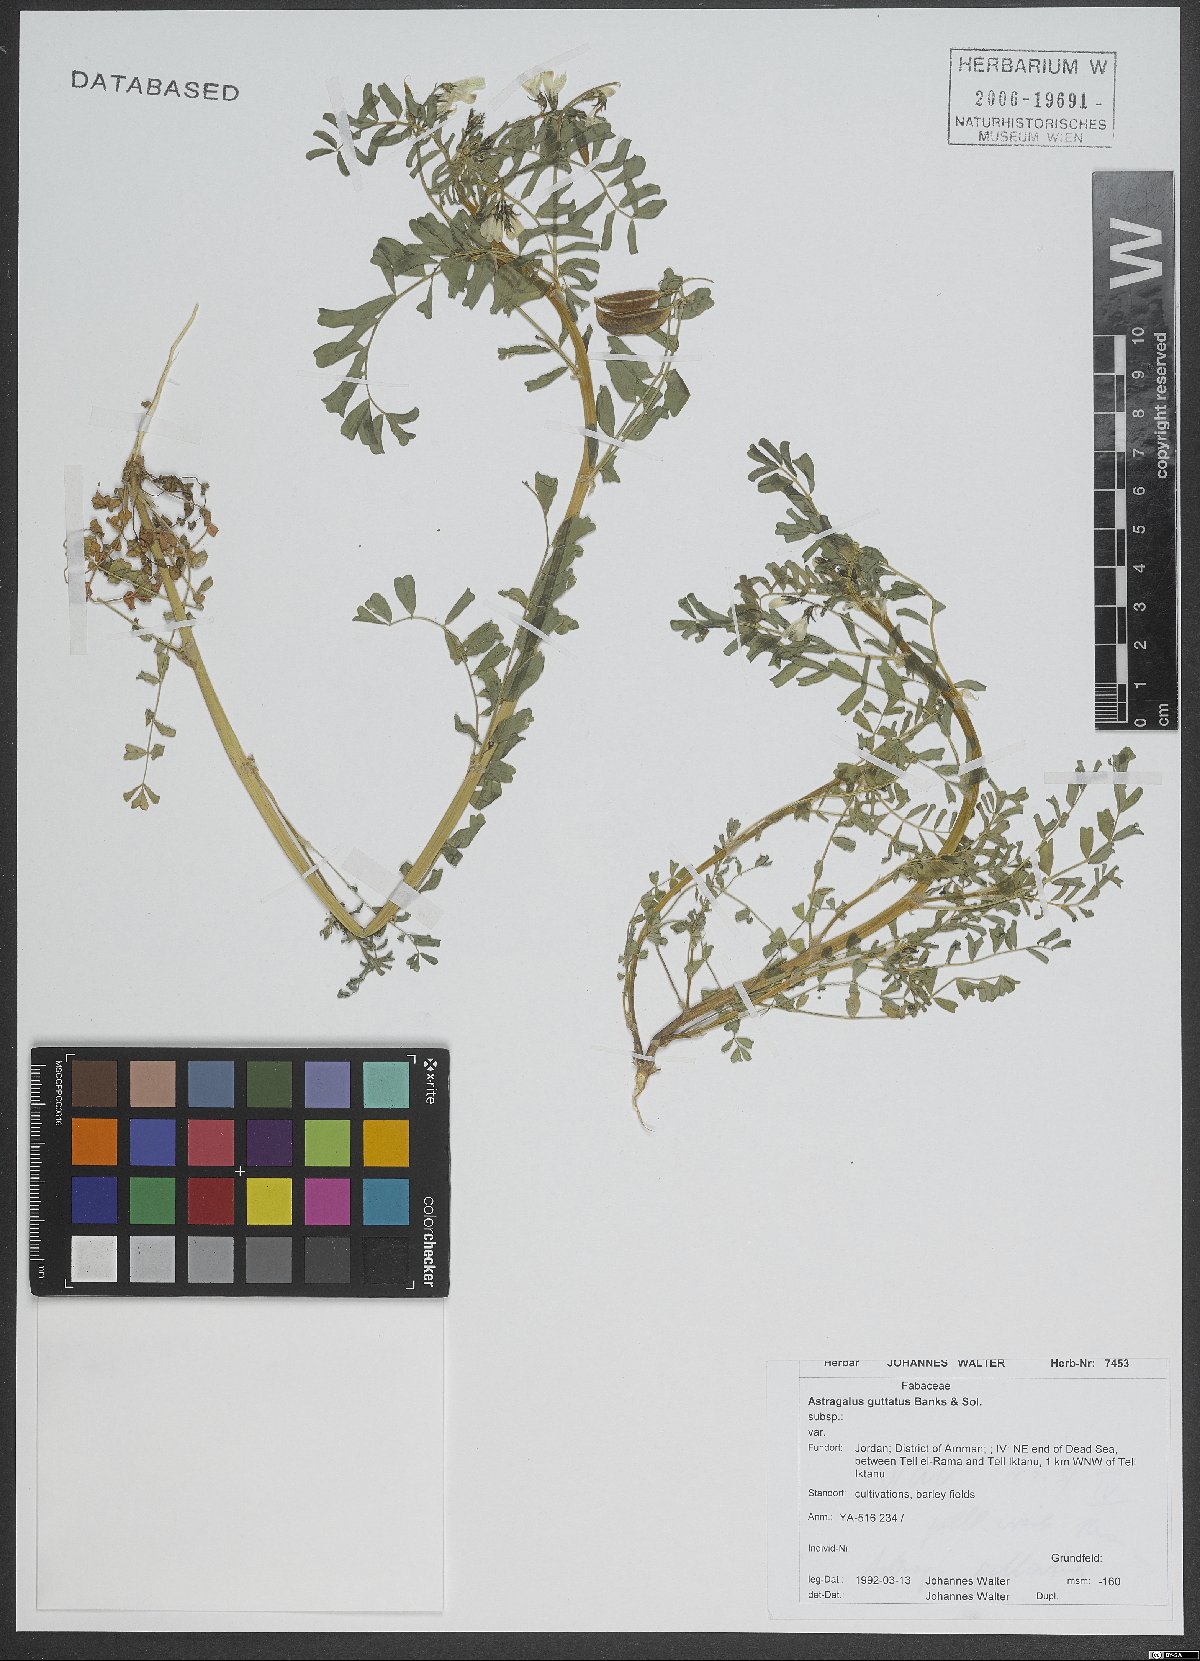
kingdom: Plantae
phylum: Tracheophyta
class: Magnoliopsida
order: Fabales
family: Fabaceae
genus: Astragalus
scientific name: Astragalus guttatus
